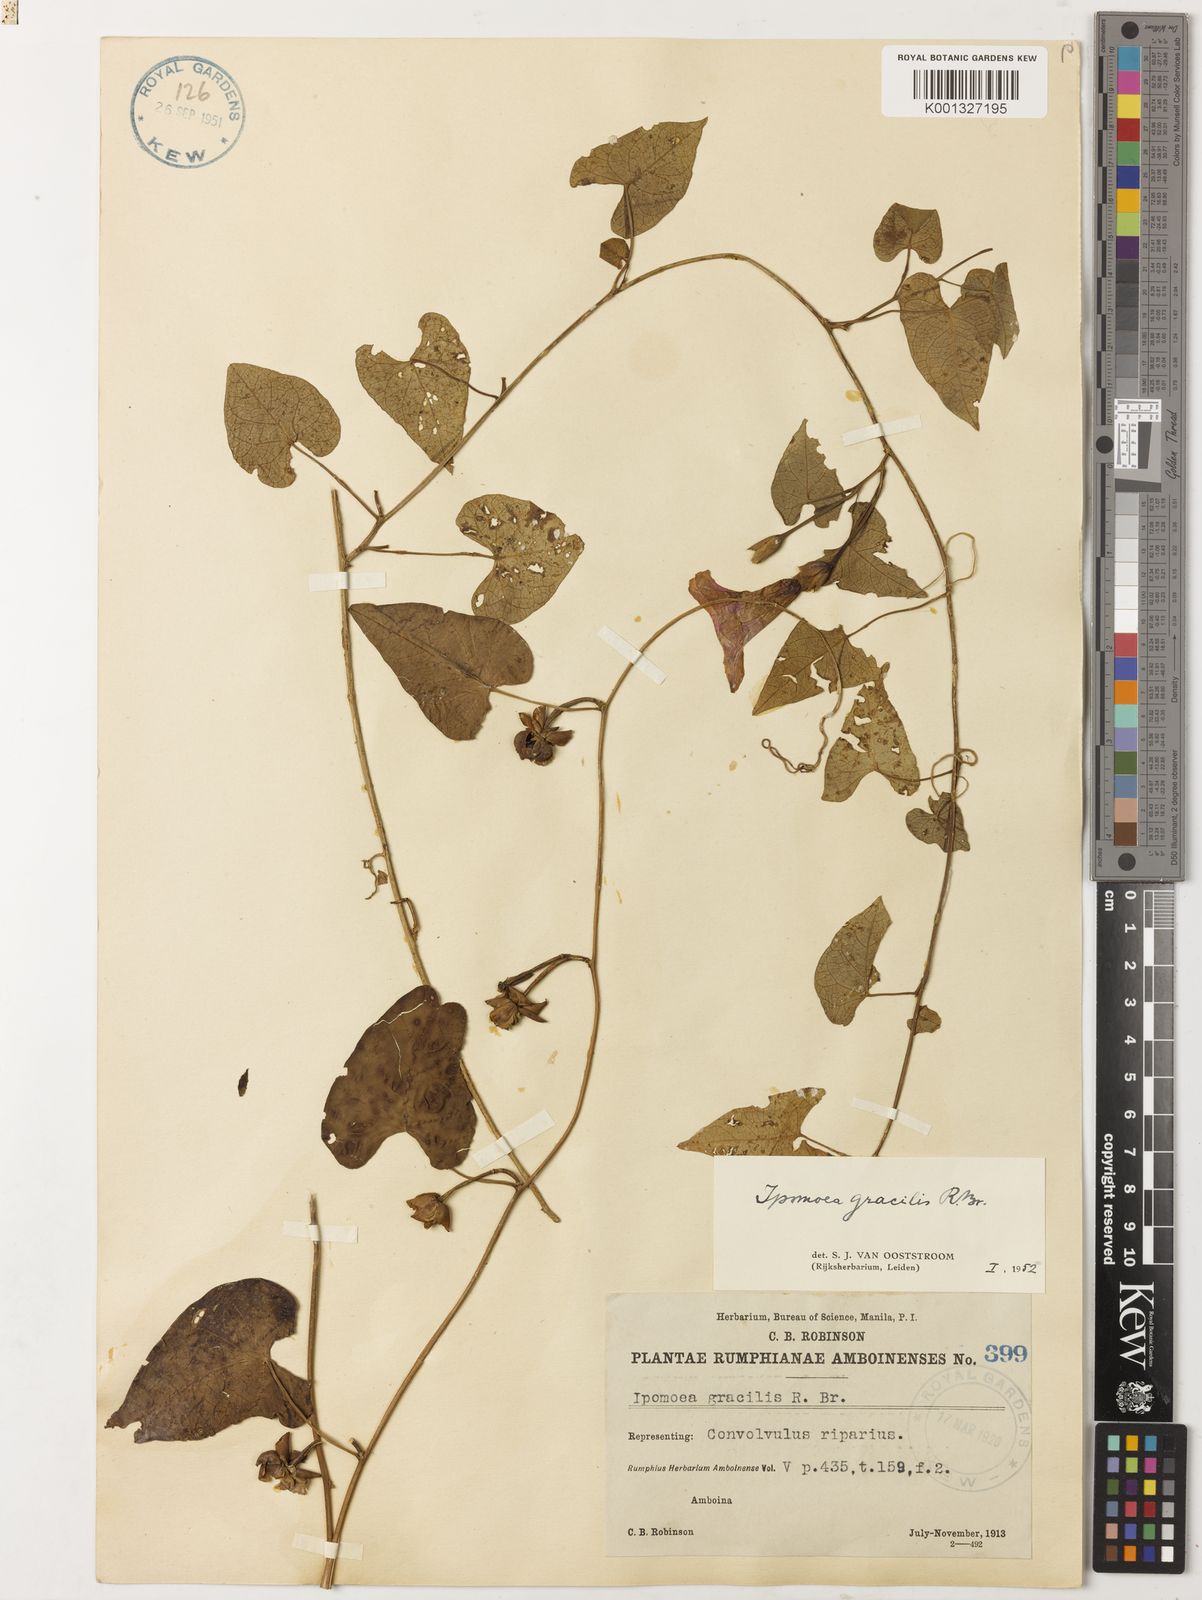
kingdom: Plantae
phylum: Tracheophyta
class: Magnoliopsida
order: Solanales
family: Convolvulaceae
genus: Ipomoea
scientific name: Ipomoea littoralis
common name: Coastal morning glory
